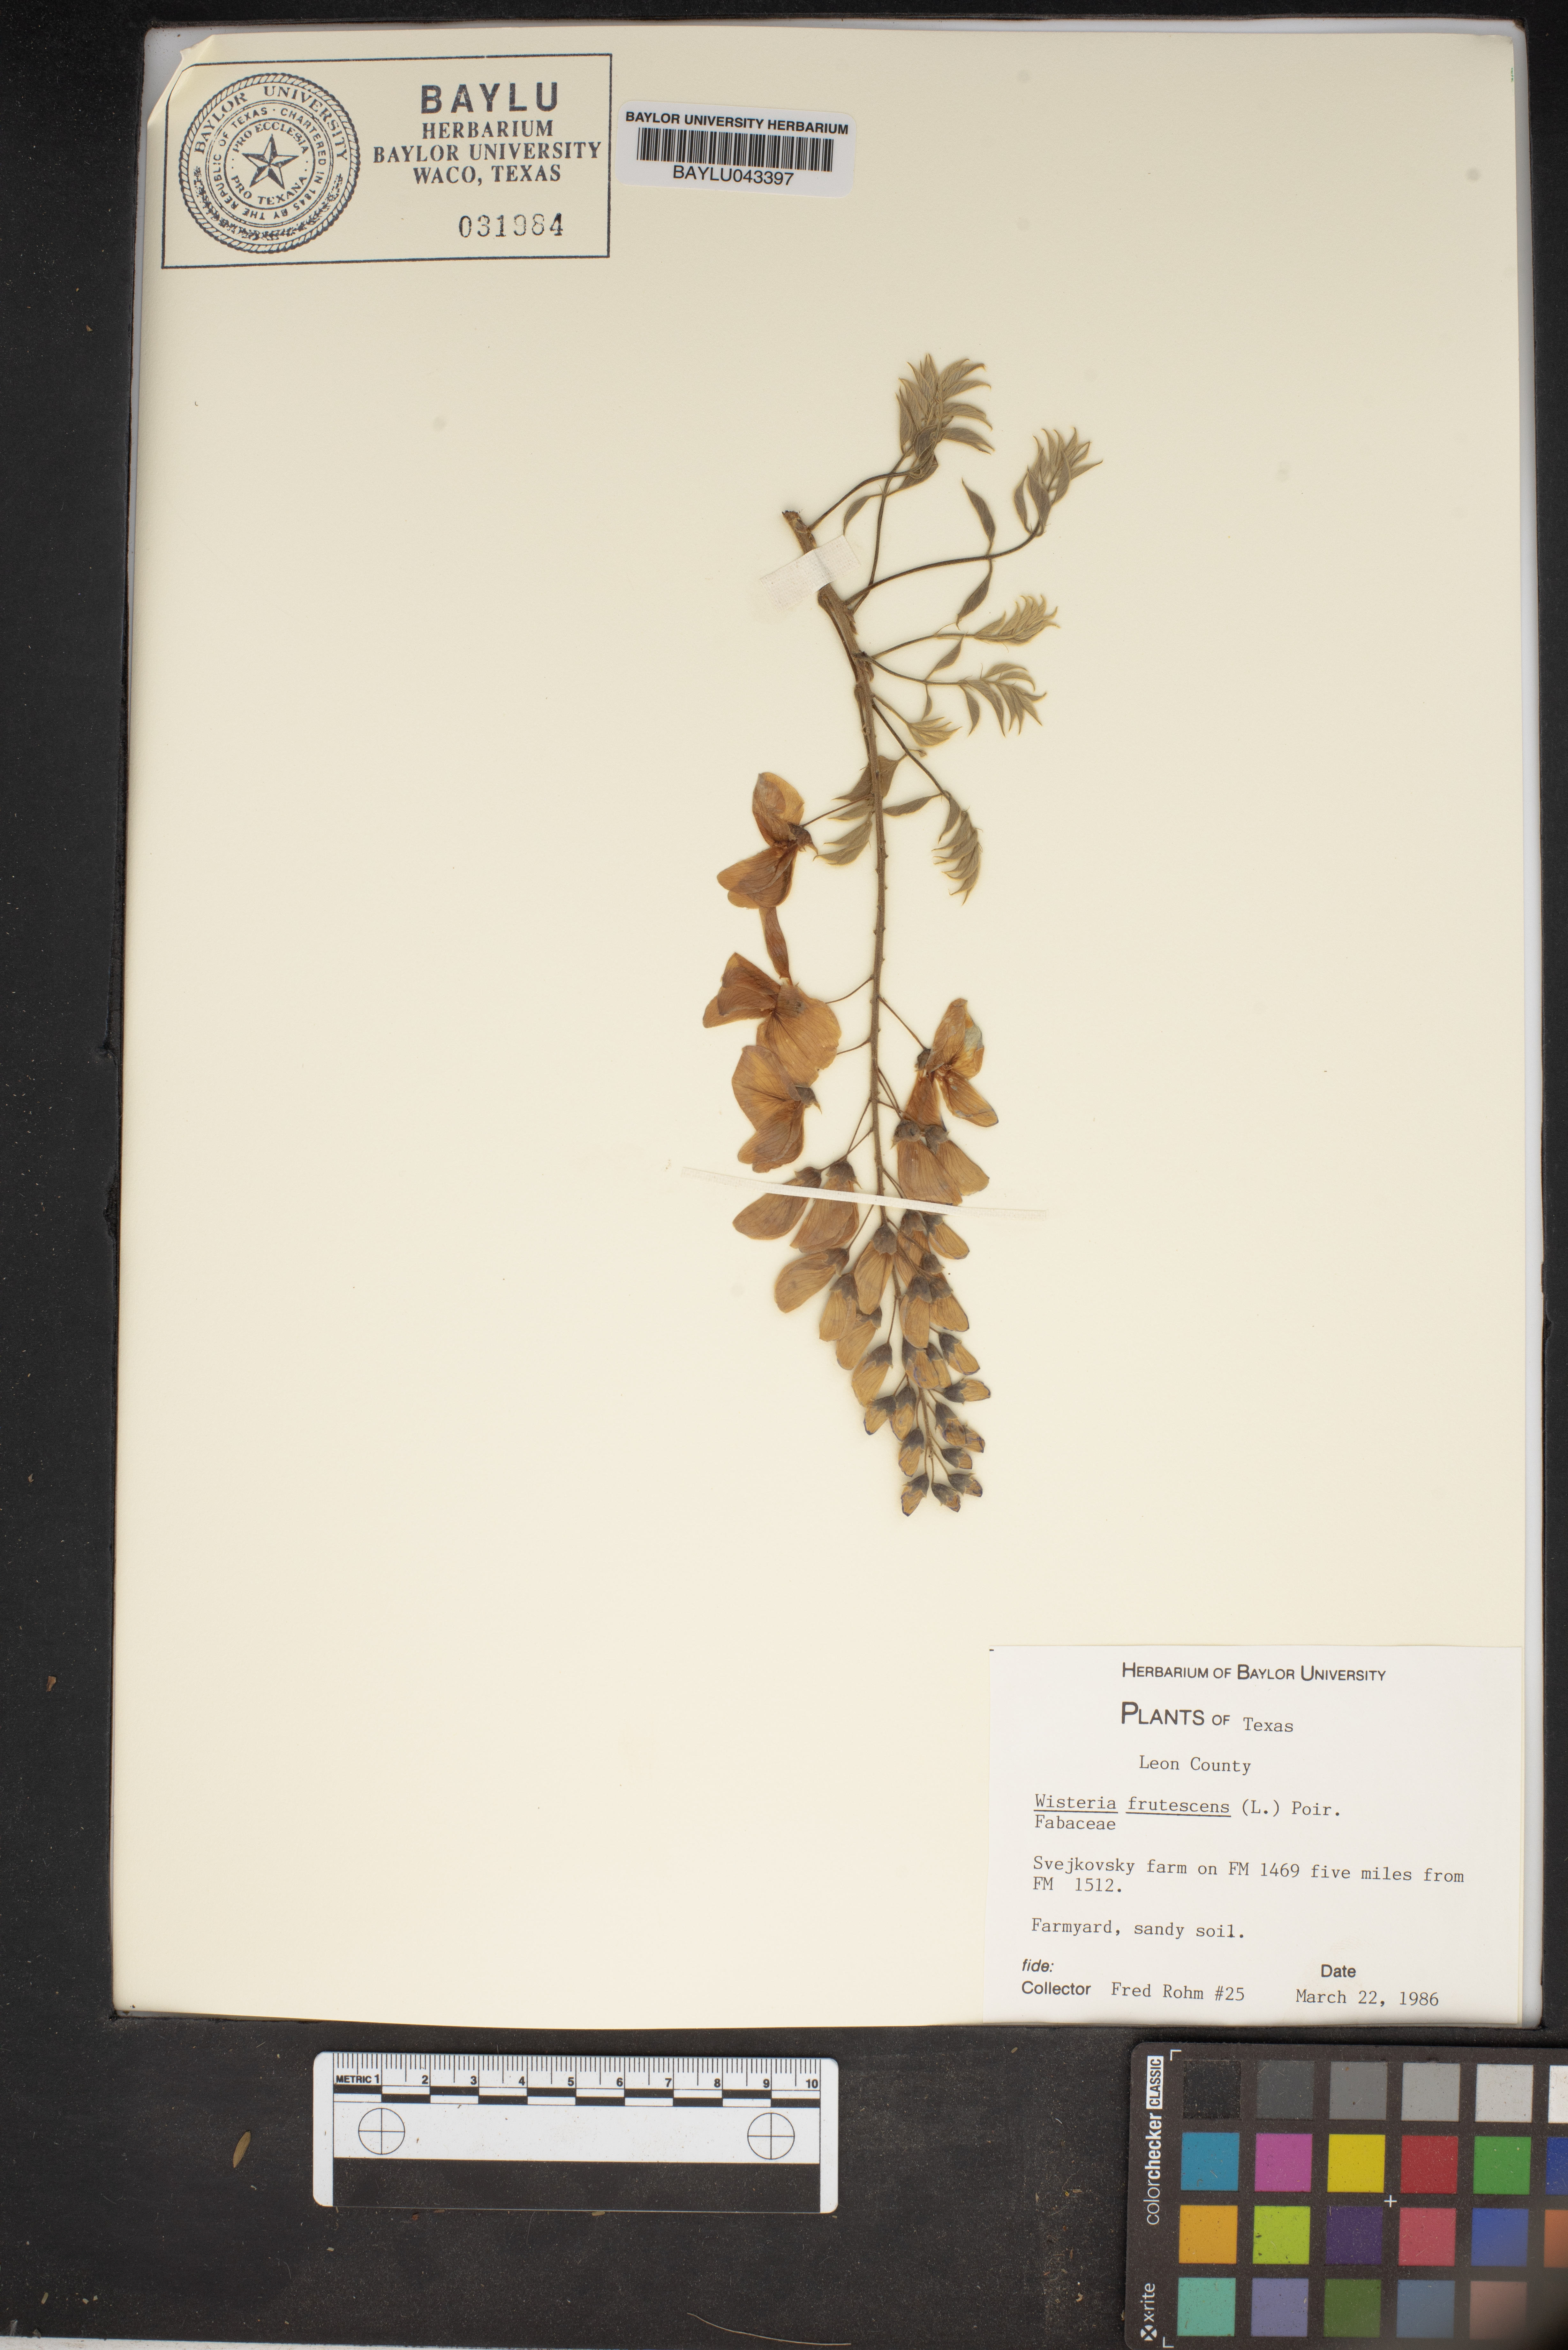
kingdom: Plantae
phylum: Tracheophyta
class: Magnoliopsida
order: Fabales
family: Fabaceae
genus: Wisteria
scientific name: Wisteria frutescens
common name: American wisteria
